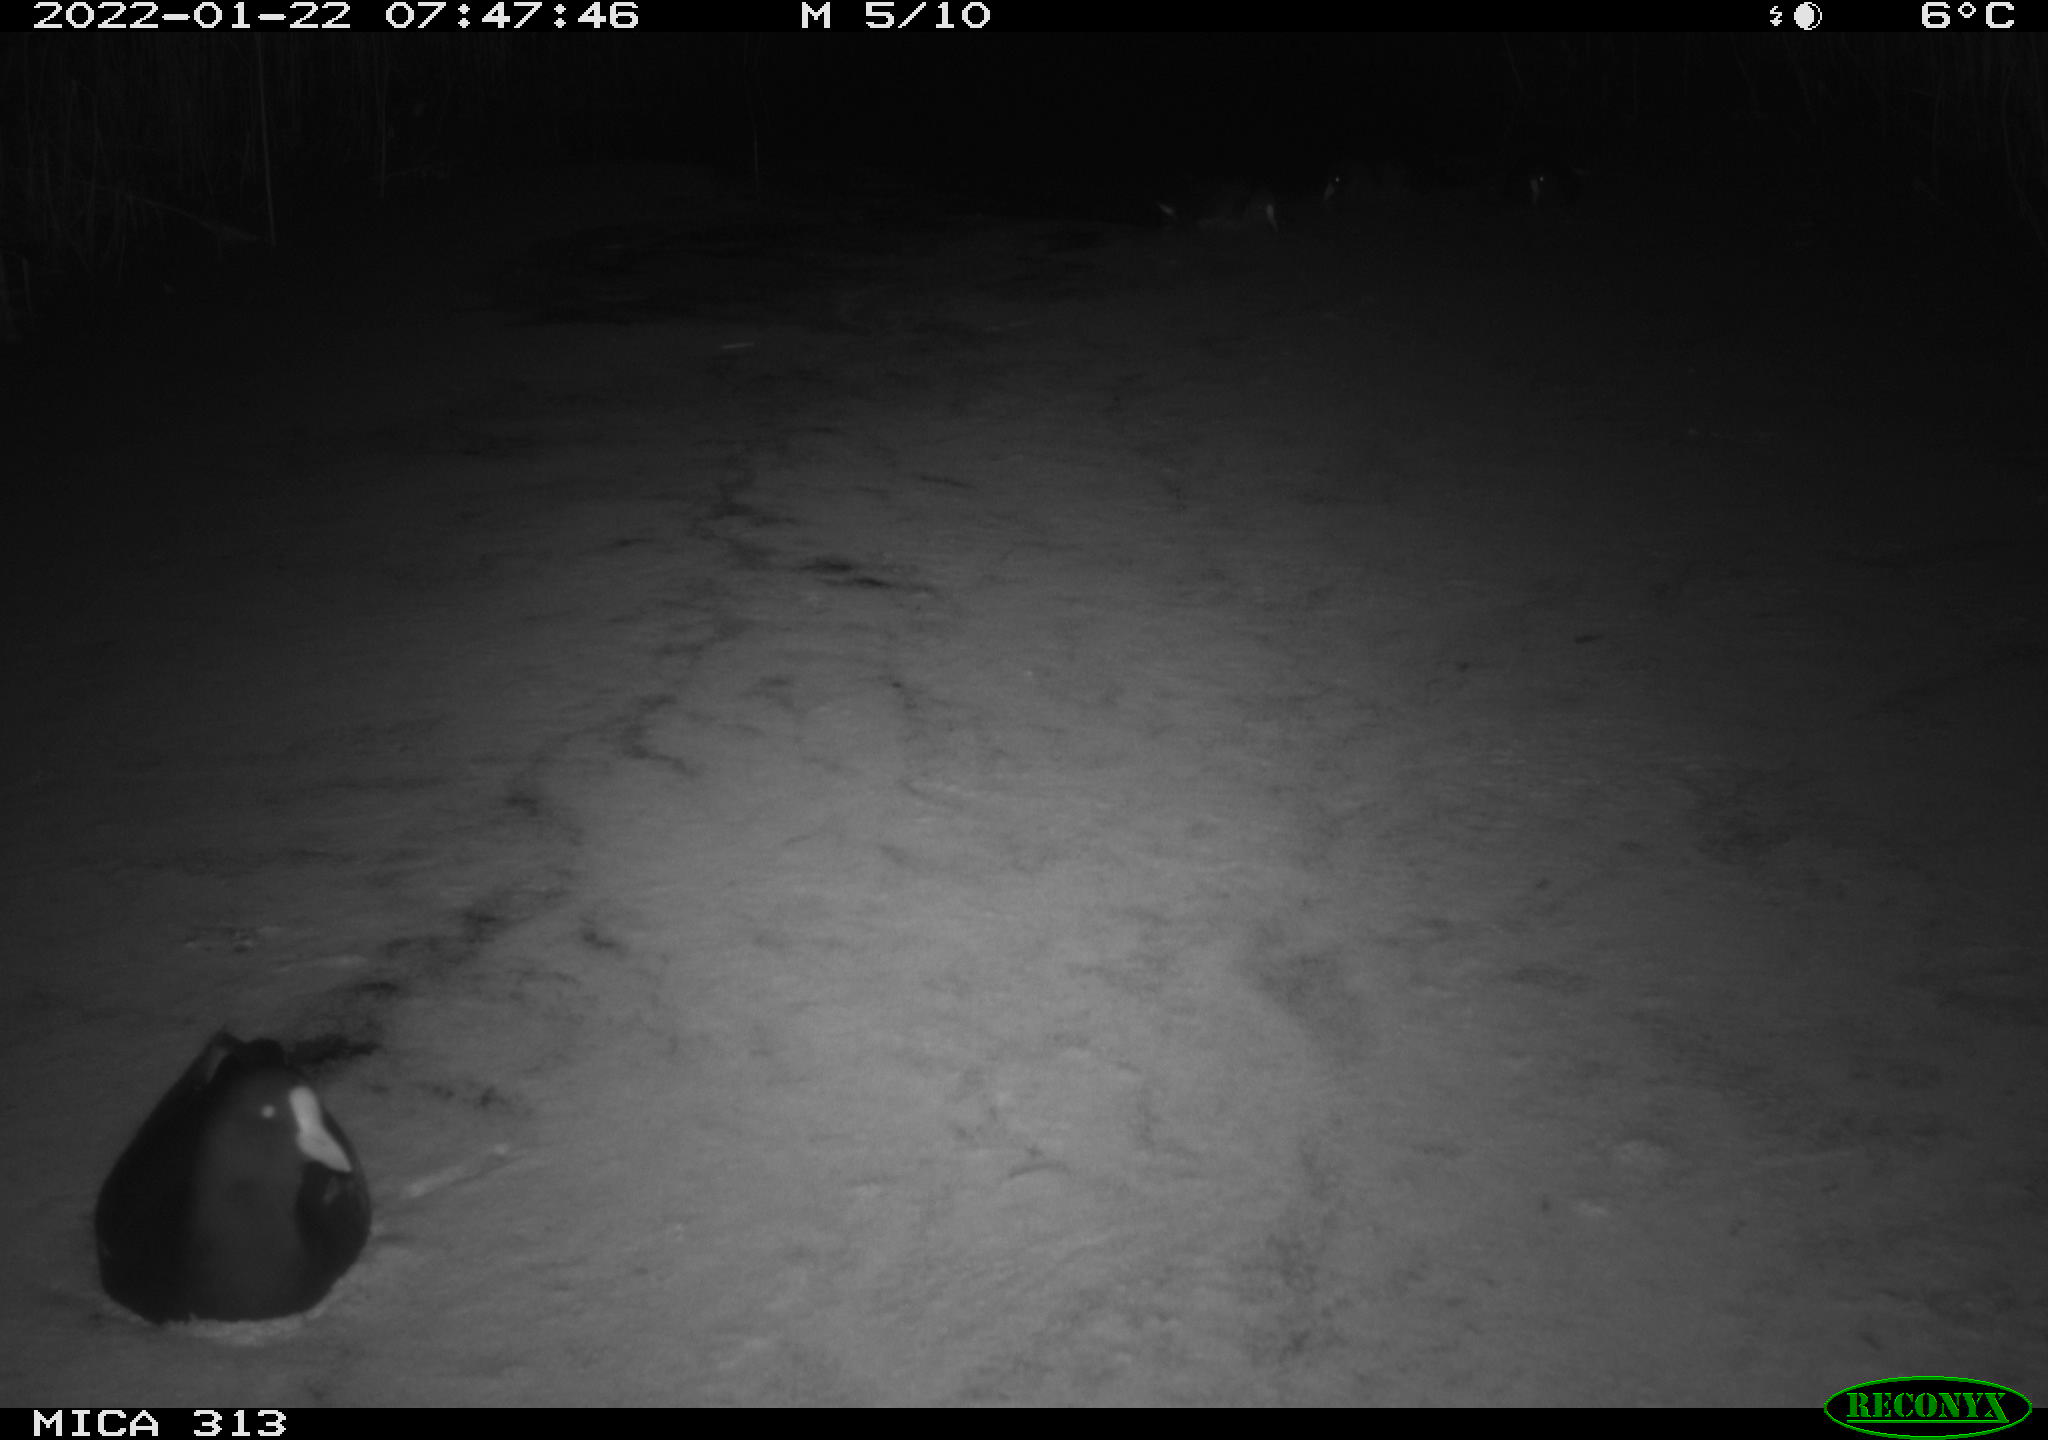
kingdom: Animalia
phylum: Chordata
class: Aves
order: Gruiformes
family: Rallidae
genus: Fulica
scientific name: Fulica atra
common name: Eurasian coot
